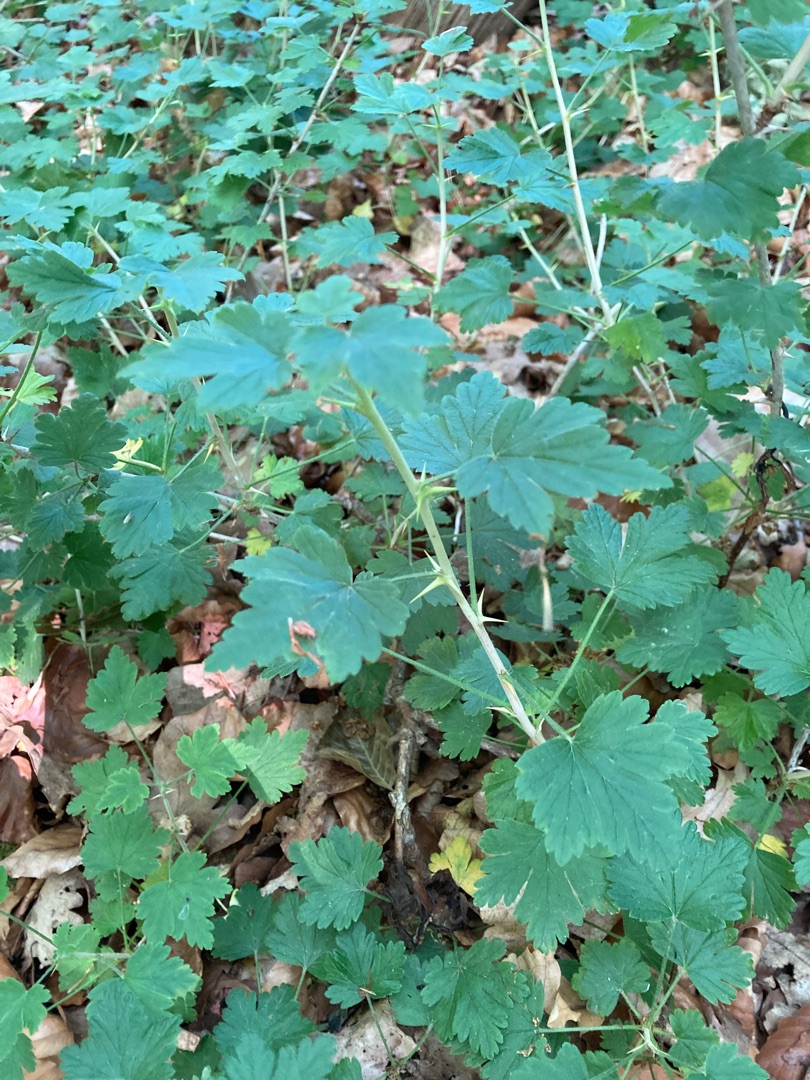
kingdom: Plantae
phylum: Tracheophyta
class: Magnoliopsida
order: Saxifragales
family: Grossulariaceae
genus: Ribes
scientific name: Ribes uva-crispa
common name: Stikkelsbær
